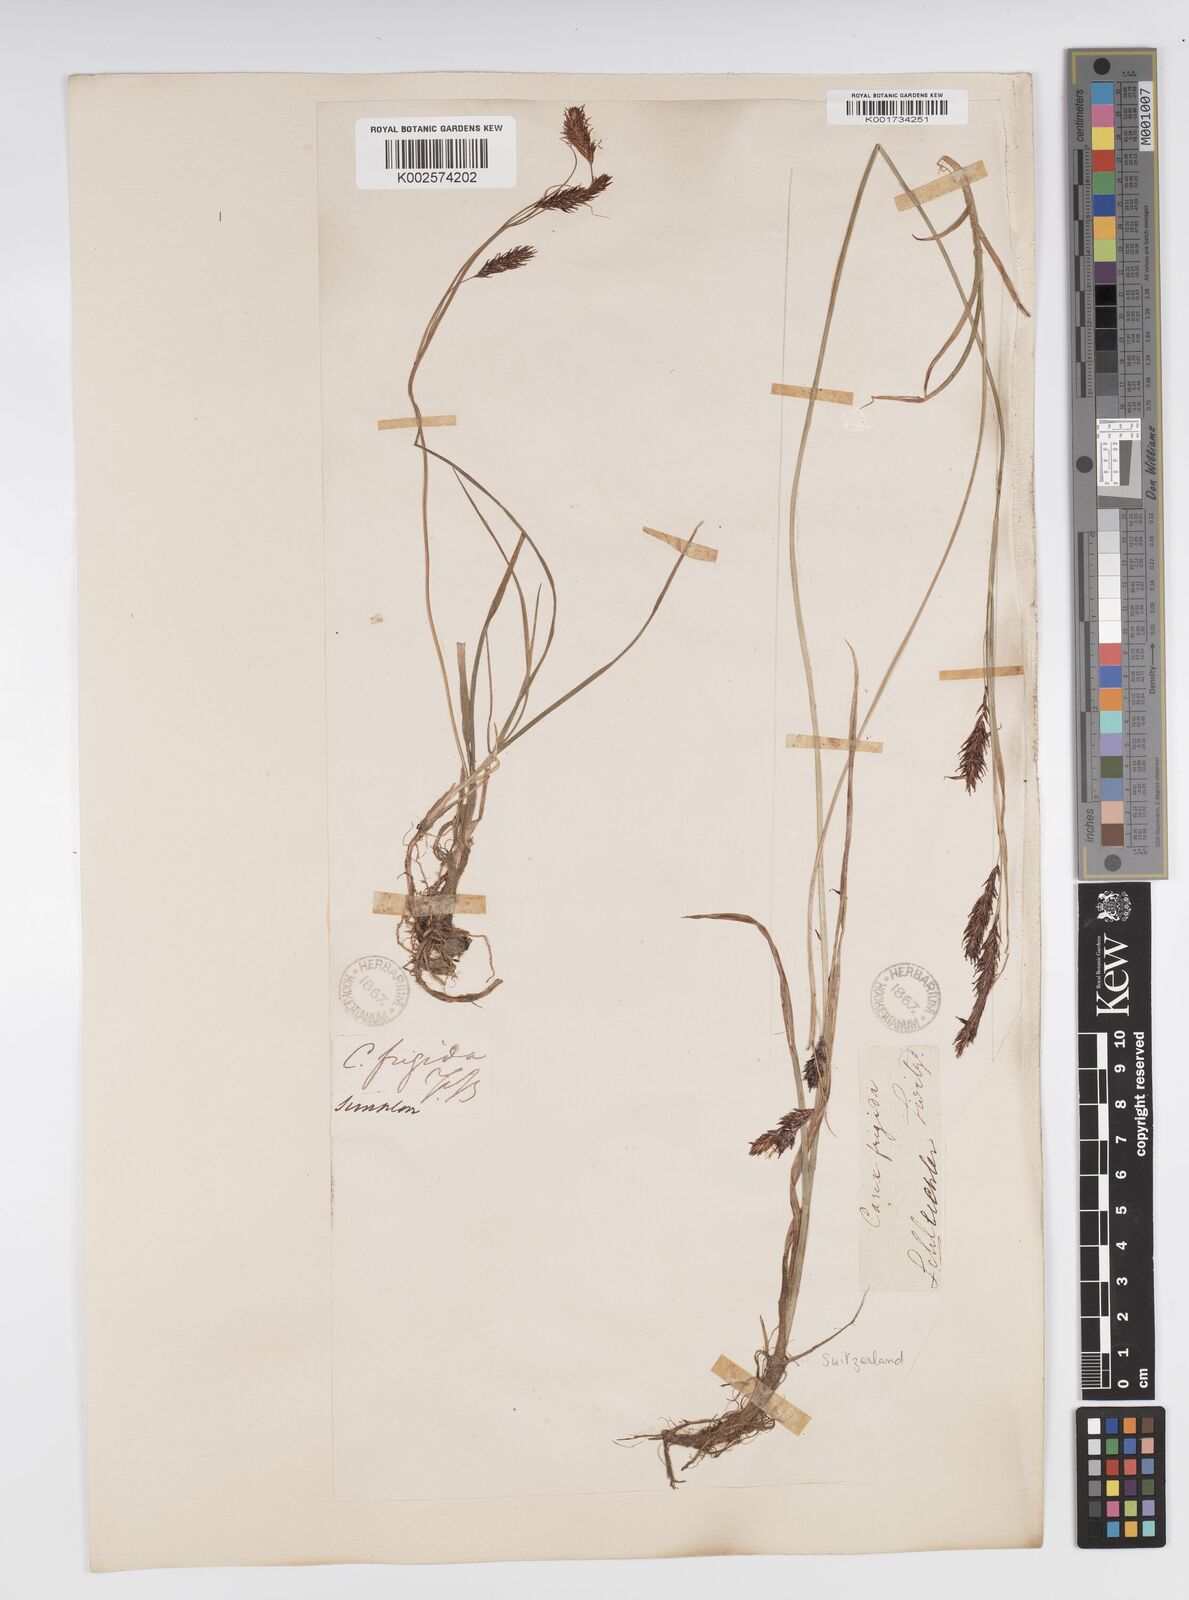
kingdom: Plantae
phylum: Tracheophyta
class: Liliopsida
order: Poales
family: Cyperaceae
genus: Carex
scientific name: Carex frigida
